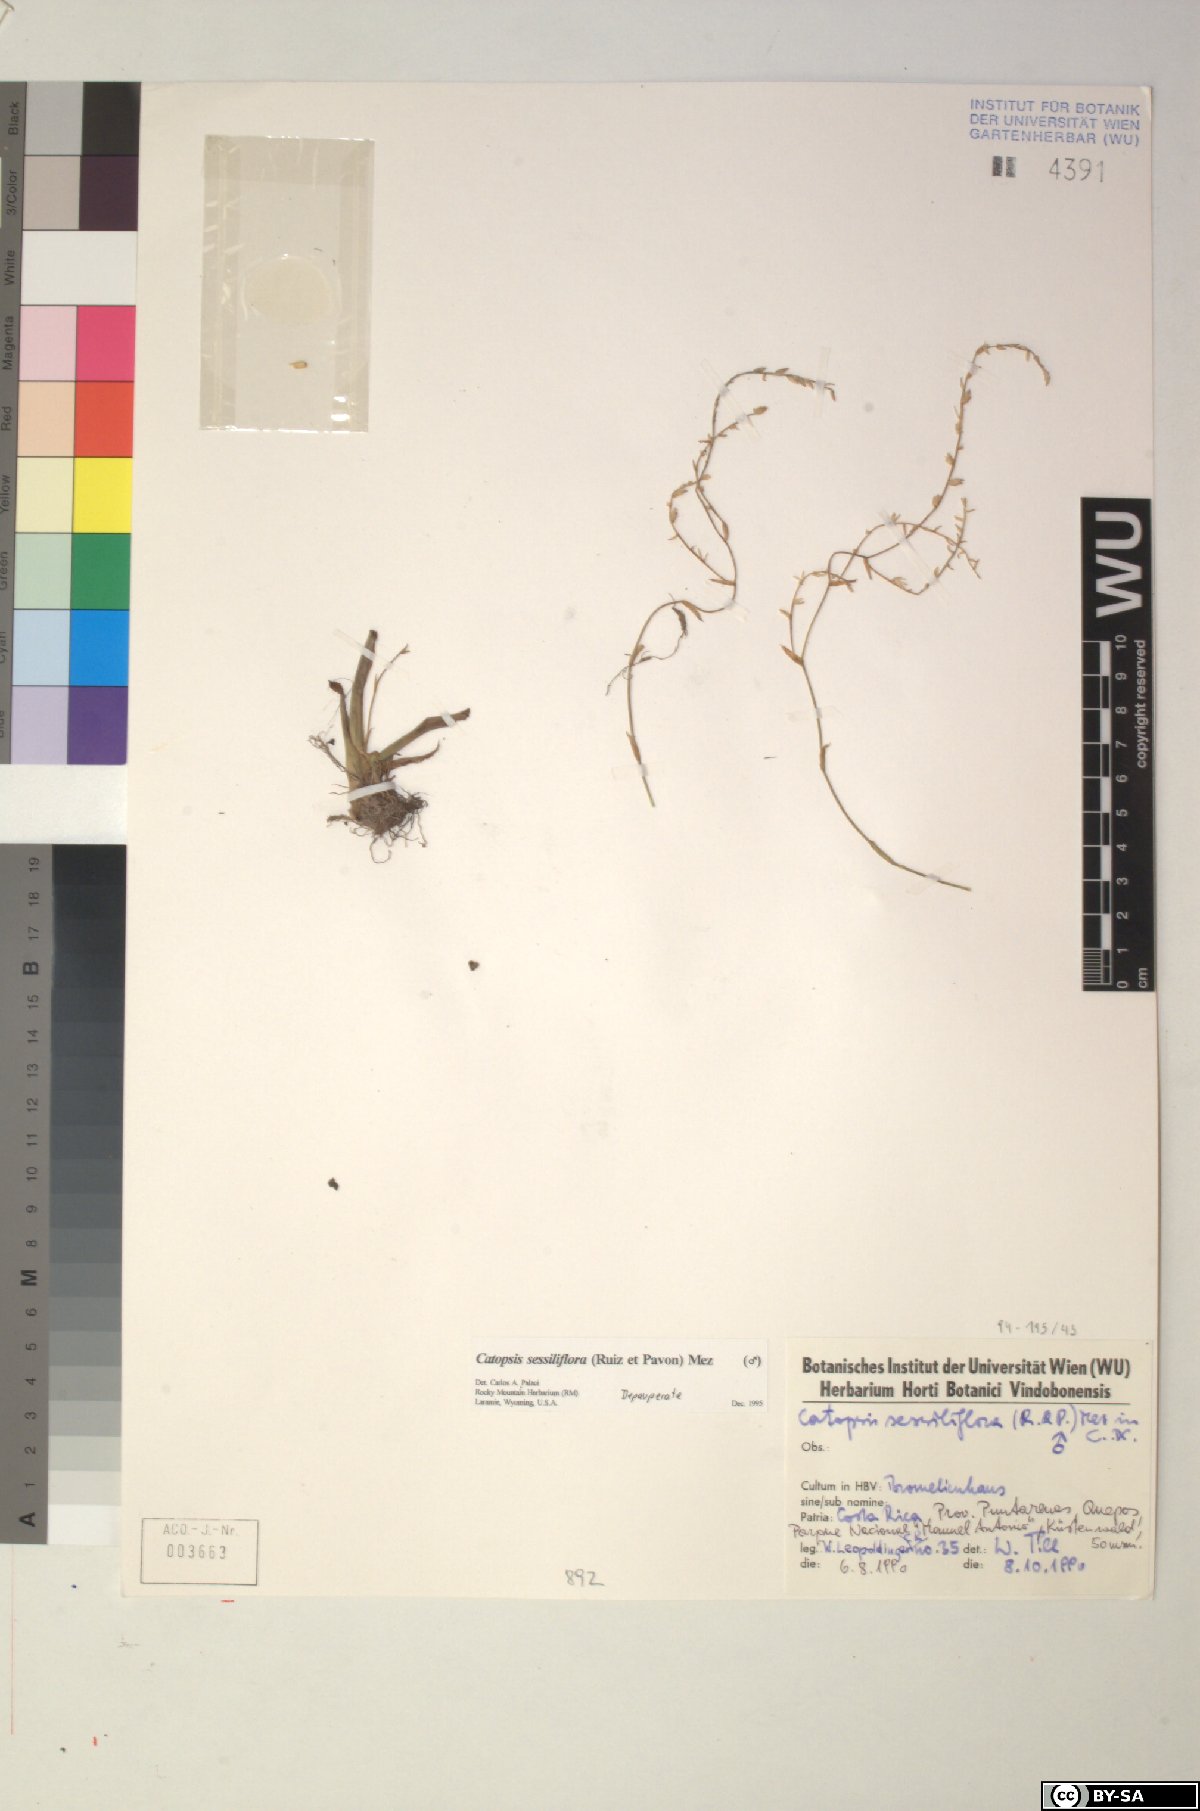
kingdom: Plantae
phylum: Tracheophyta
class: Liliopsida
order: Poales
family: Bromeliaceae
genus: Catopsis
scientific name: Catopsis sessiliflora
